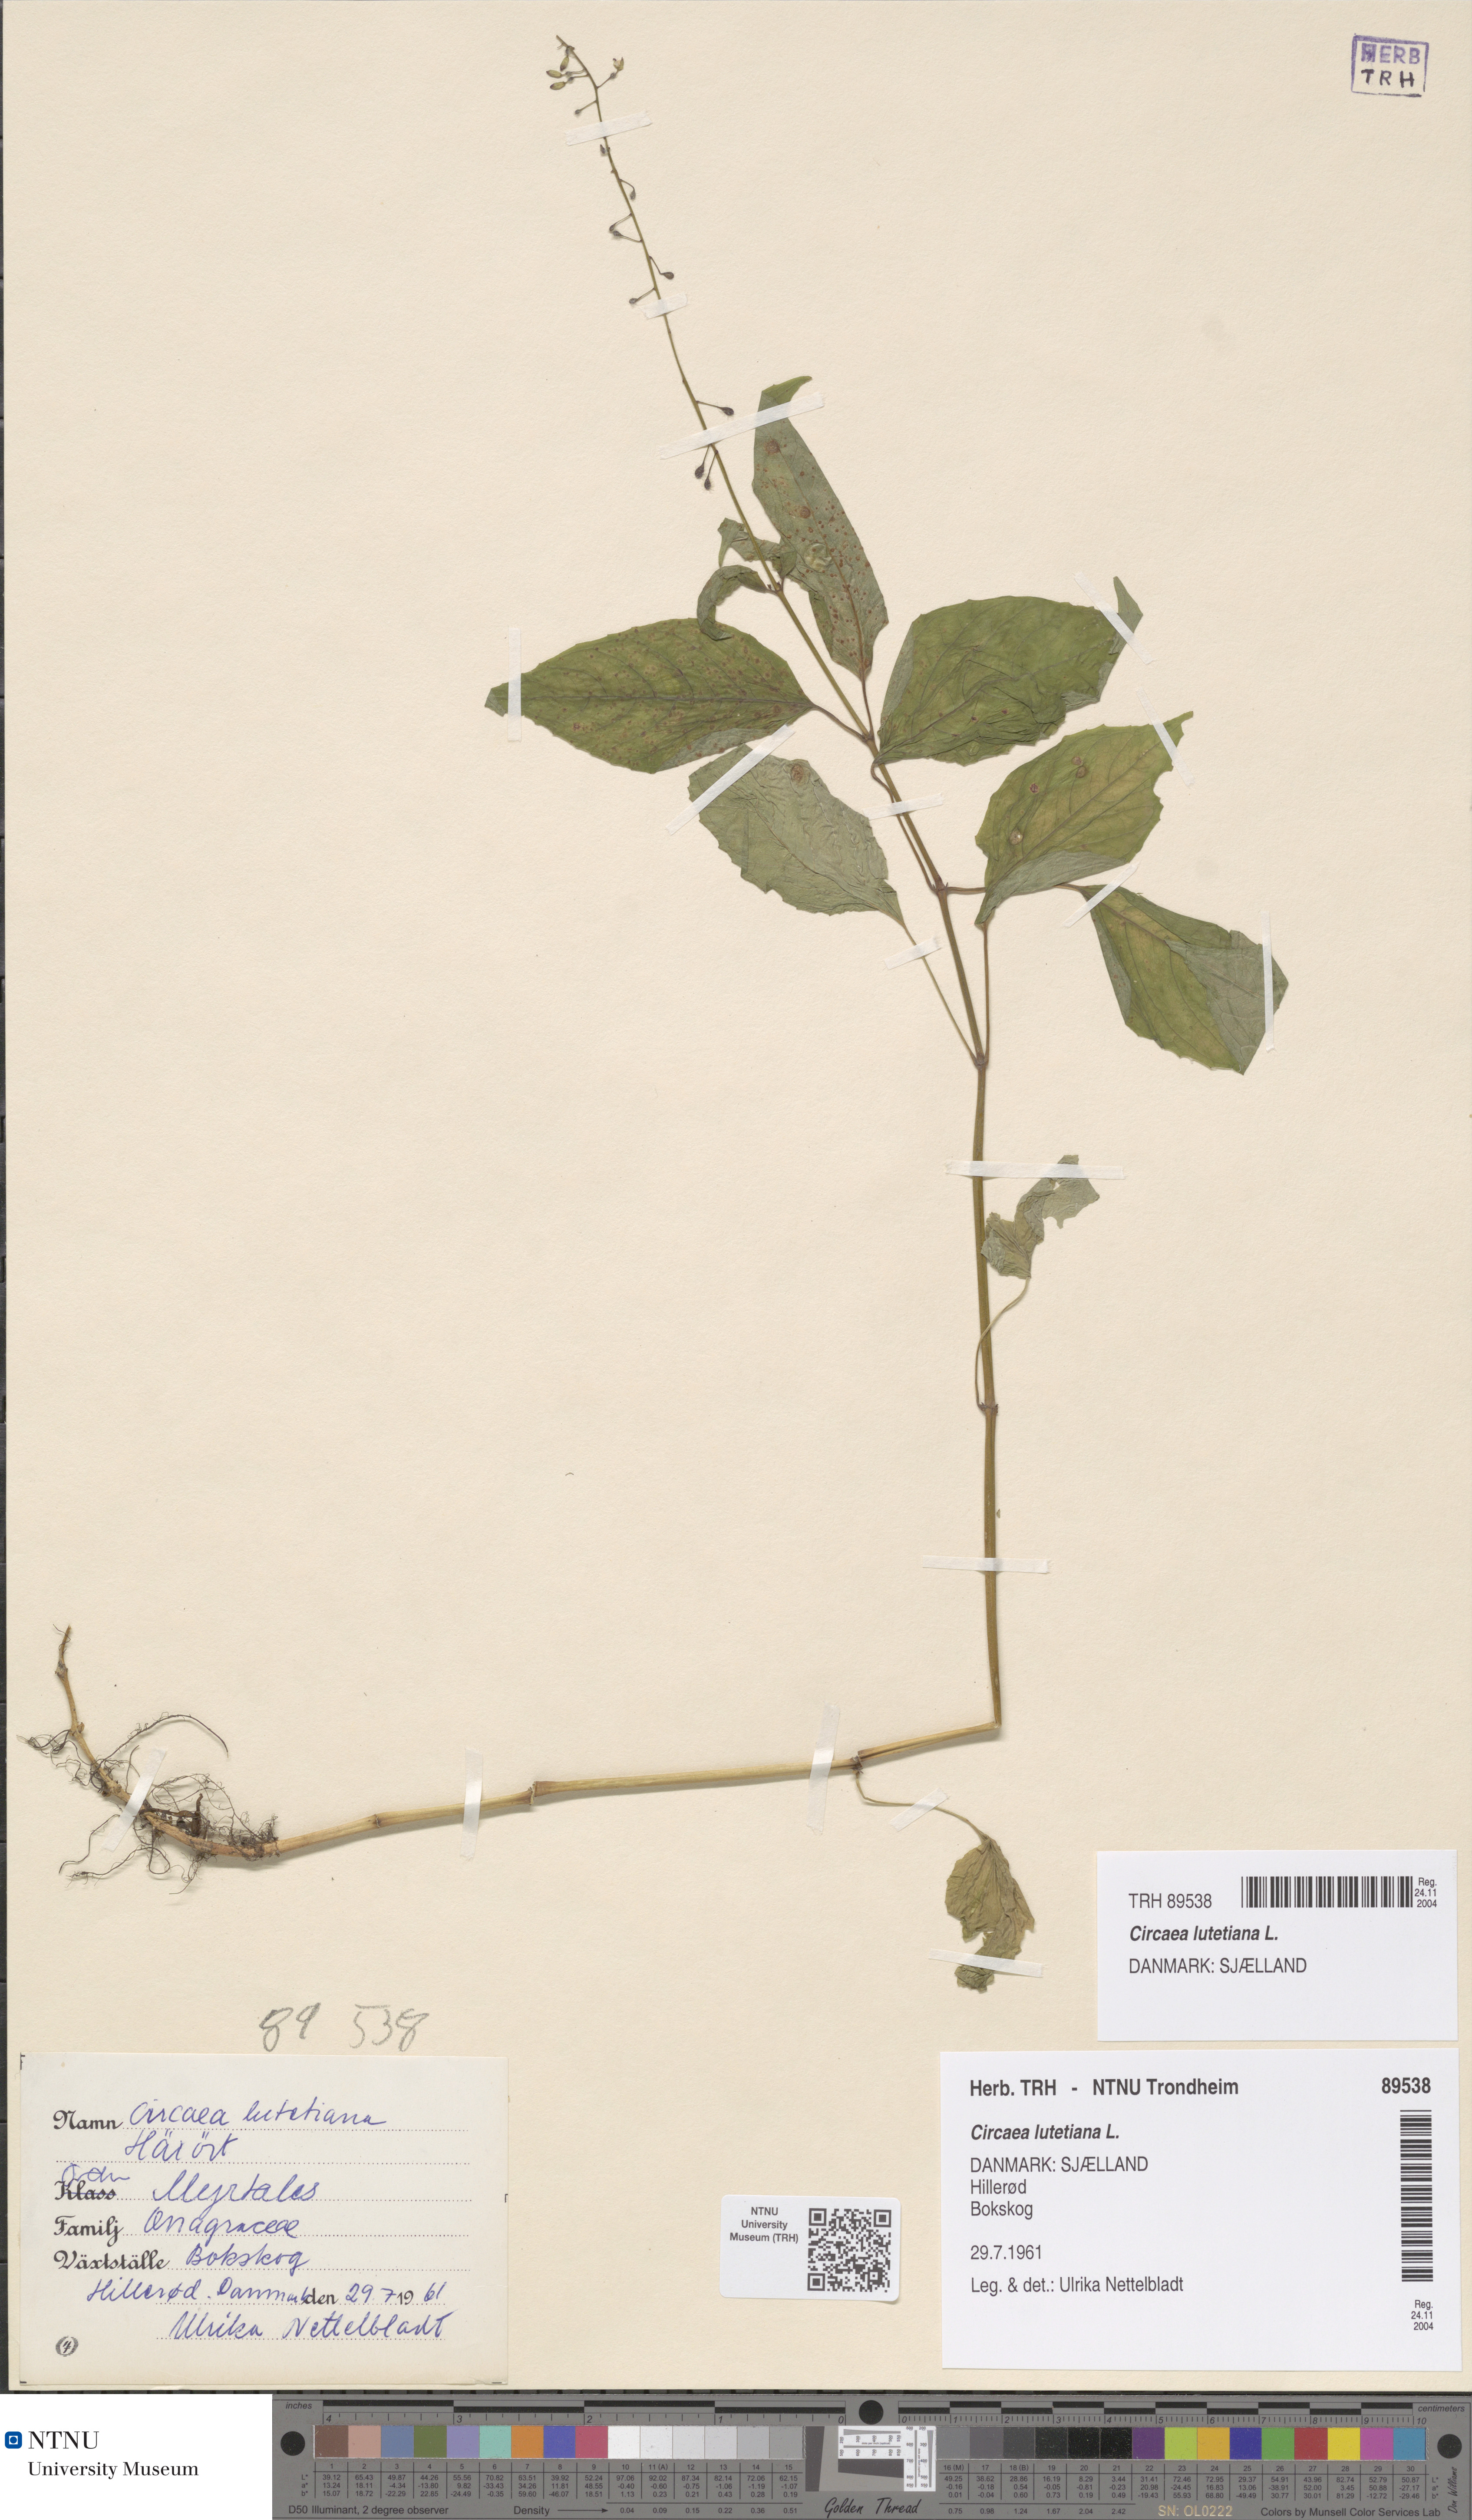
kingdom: Plantae
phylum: Tracheophyta
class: Magnoliopsida
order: Myrtales
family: Onagraceae
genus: Circaea
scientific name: Circaea lutetiana
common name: Enchanter's-nightshade
